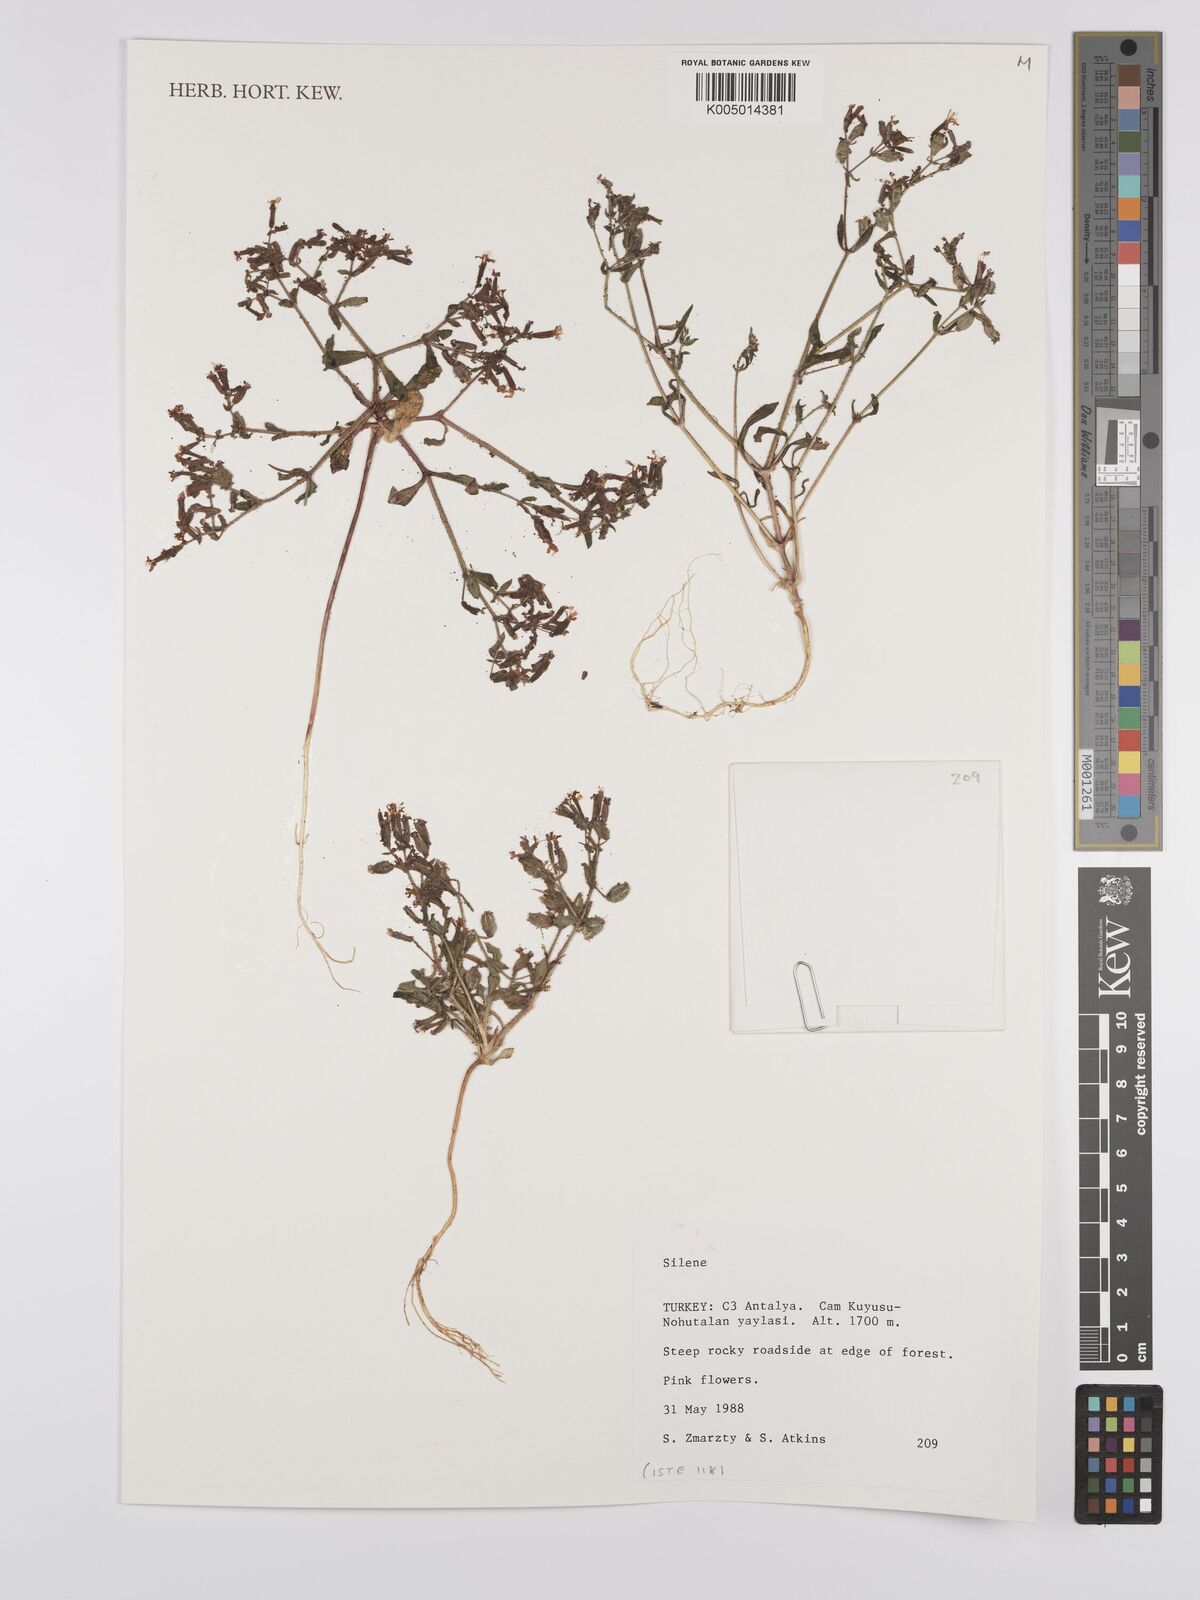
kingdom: Plantae
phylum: Tracheophyta
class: Magnoliopsida
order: Caryophyllales
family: Caryophyllaceae
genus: Silene
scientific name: Silene
